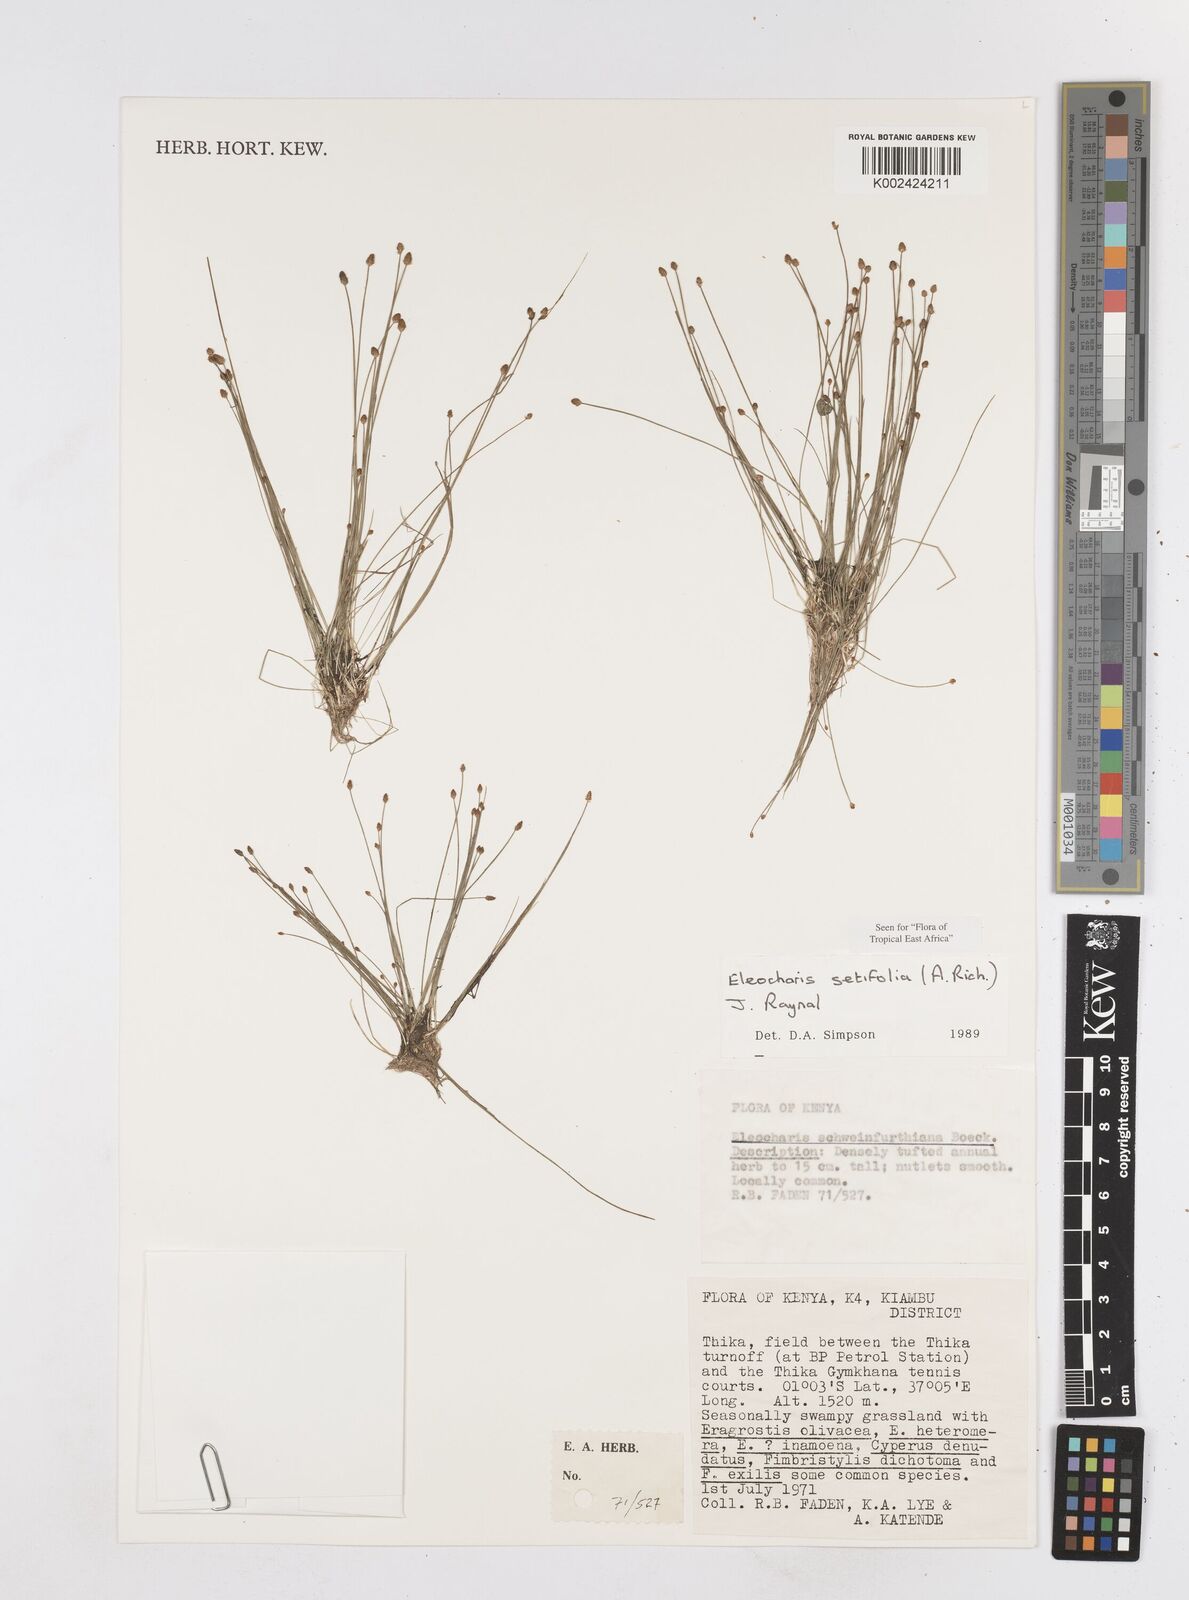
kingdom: Plantae
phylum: Tracheophyta
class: Liliopsida
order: Poales
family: Cyperaceae
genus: Eleocharis
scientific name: Eleocharis setifolia
